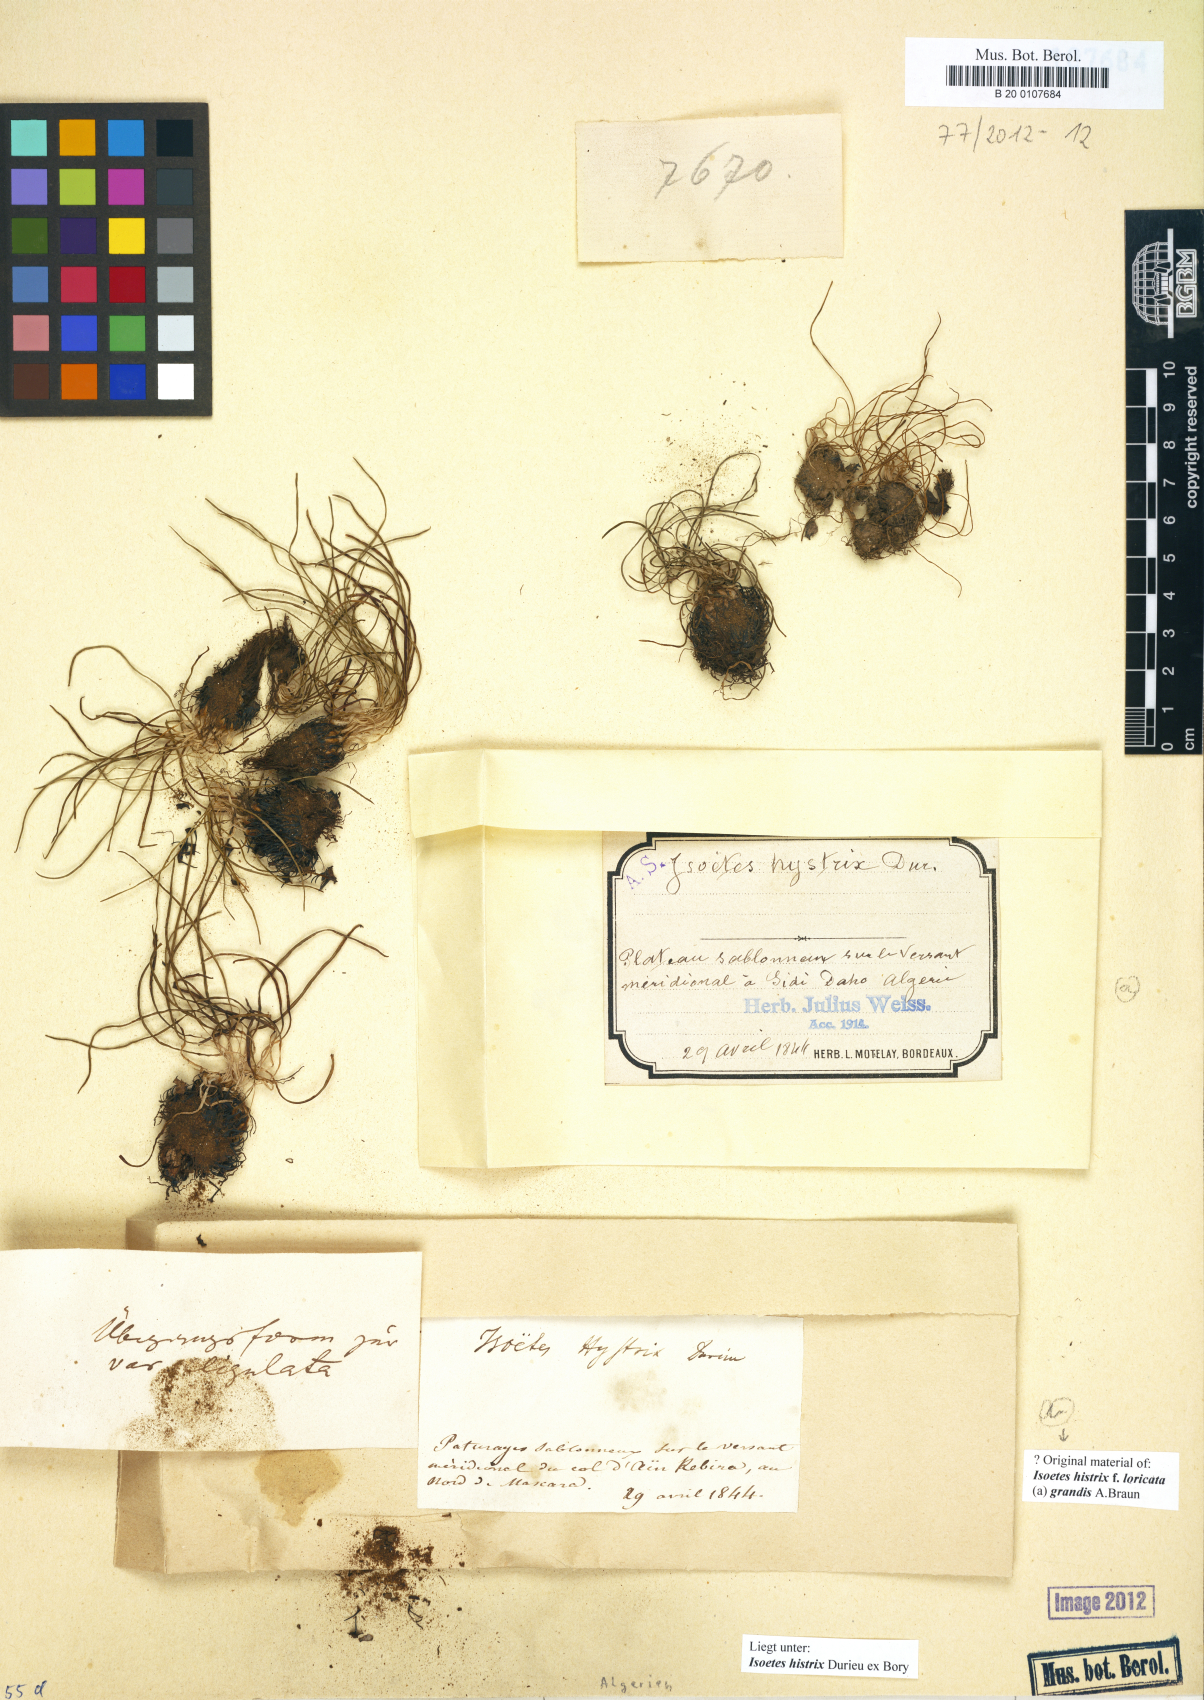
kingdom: Plantae
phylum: Tracheophyta
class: Lycopodiopsida
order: Isoetales
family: Isoetaceae
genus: Isoetes
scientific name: Isoetes histrix
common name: Land quillwort
